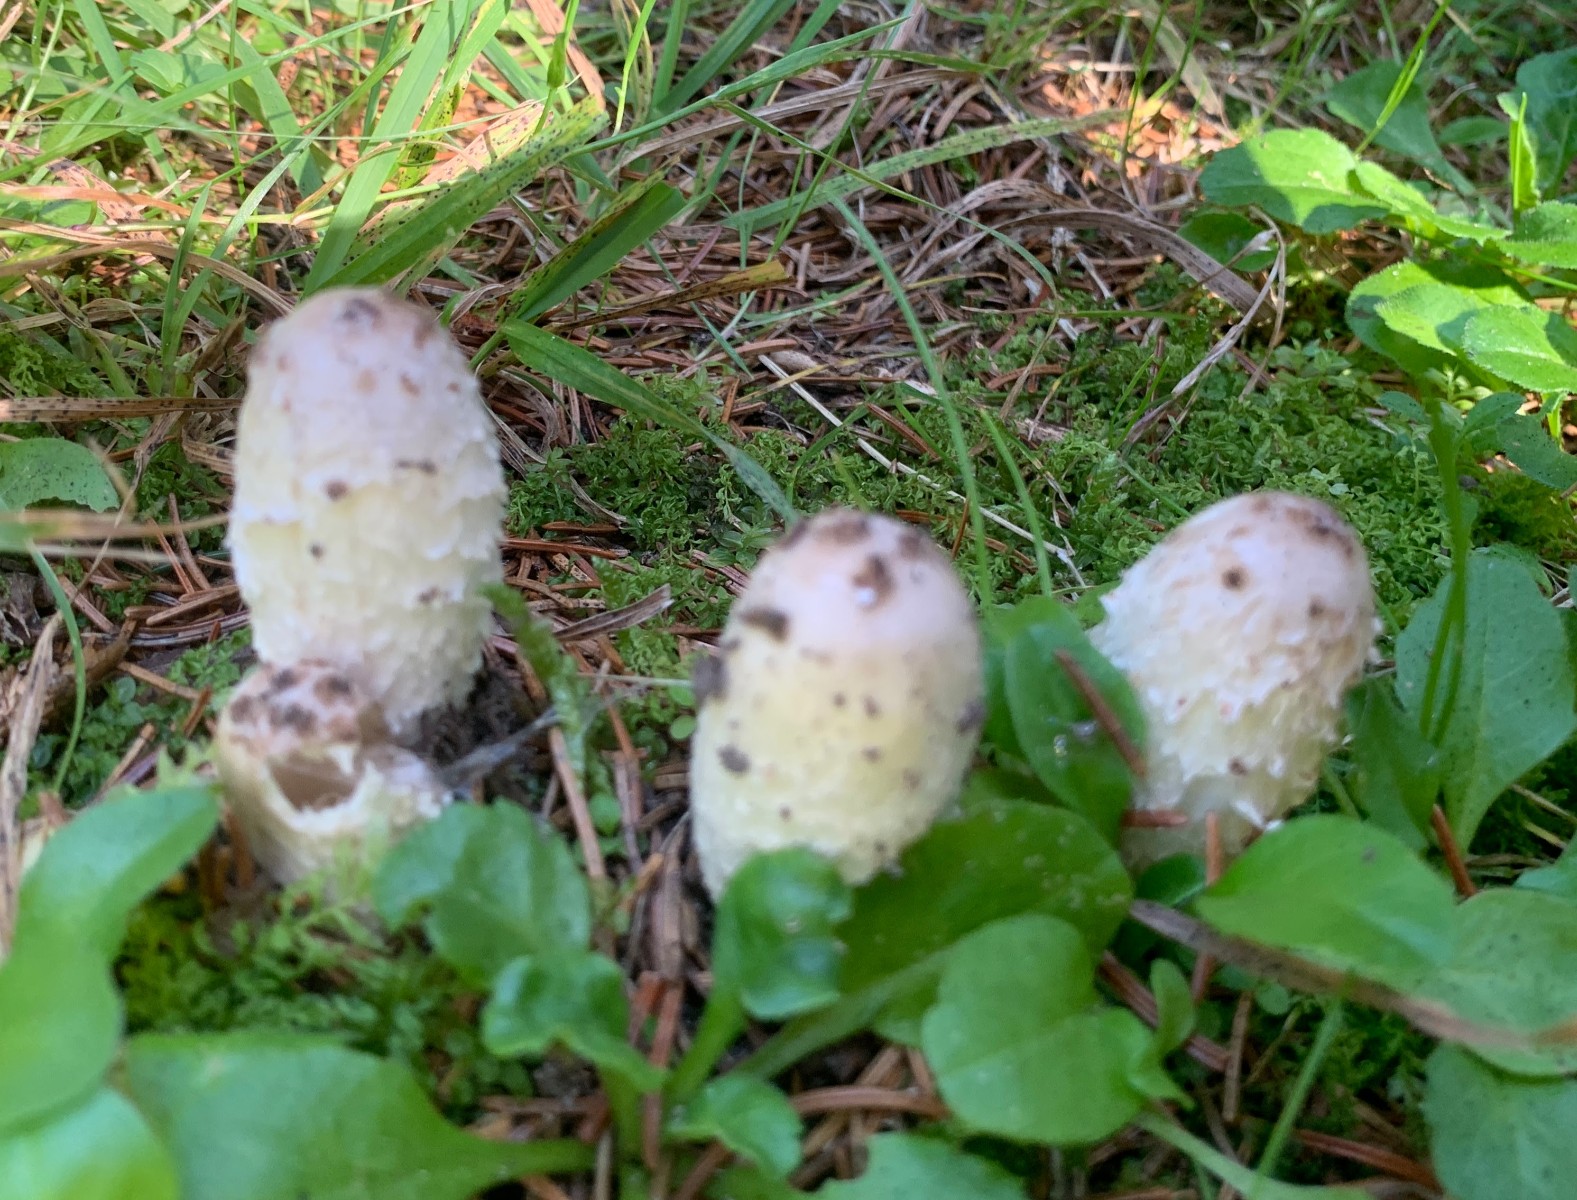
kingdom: Fungi
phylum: Basidiomycota
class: Agaricomycetes
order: Agaricales
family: Agaricaceae
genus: Coprinus
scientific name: Coprinus comatus
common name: stor parykhat
